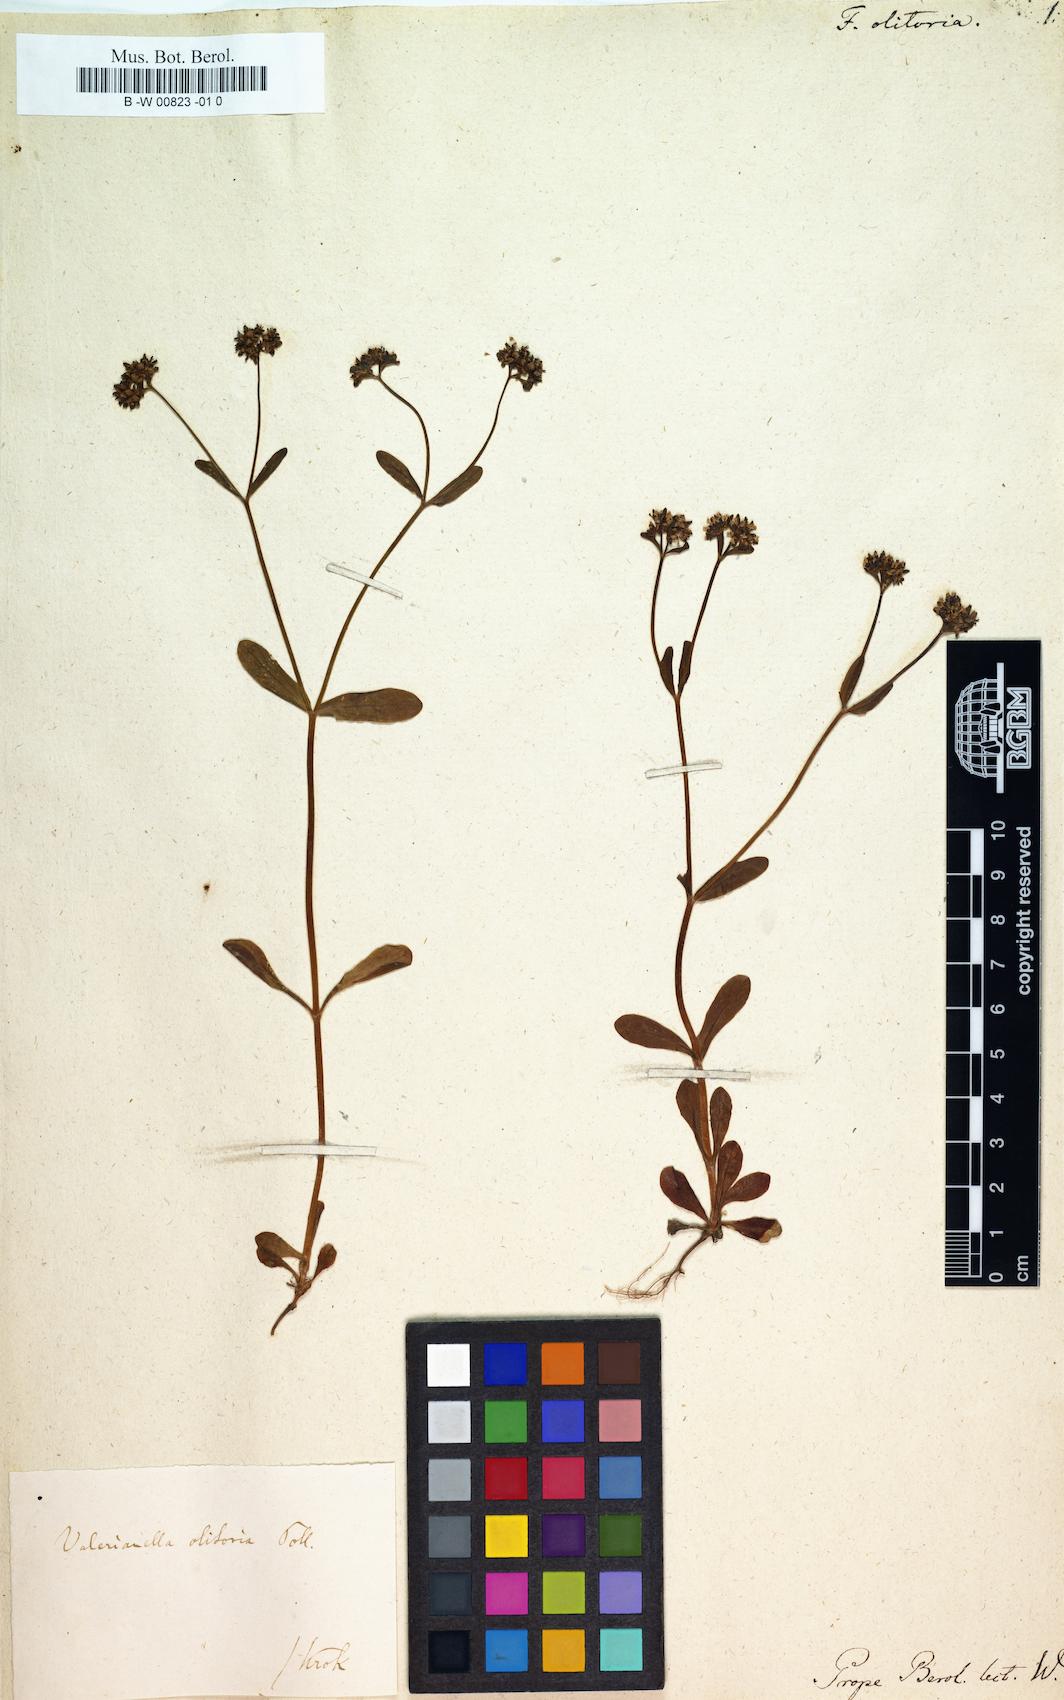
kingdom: Plantae
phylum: Tracheophyta
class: Magnoliopsida
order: Dipsacales
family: Caprifoliaceae
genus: Valerianella
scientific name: Valerianella locusta
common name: Common cornsalad
